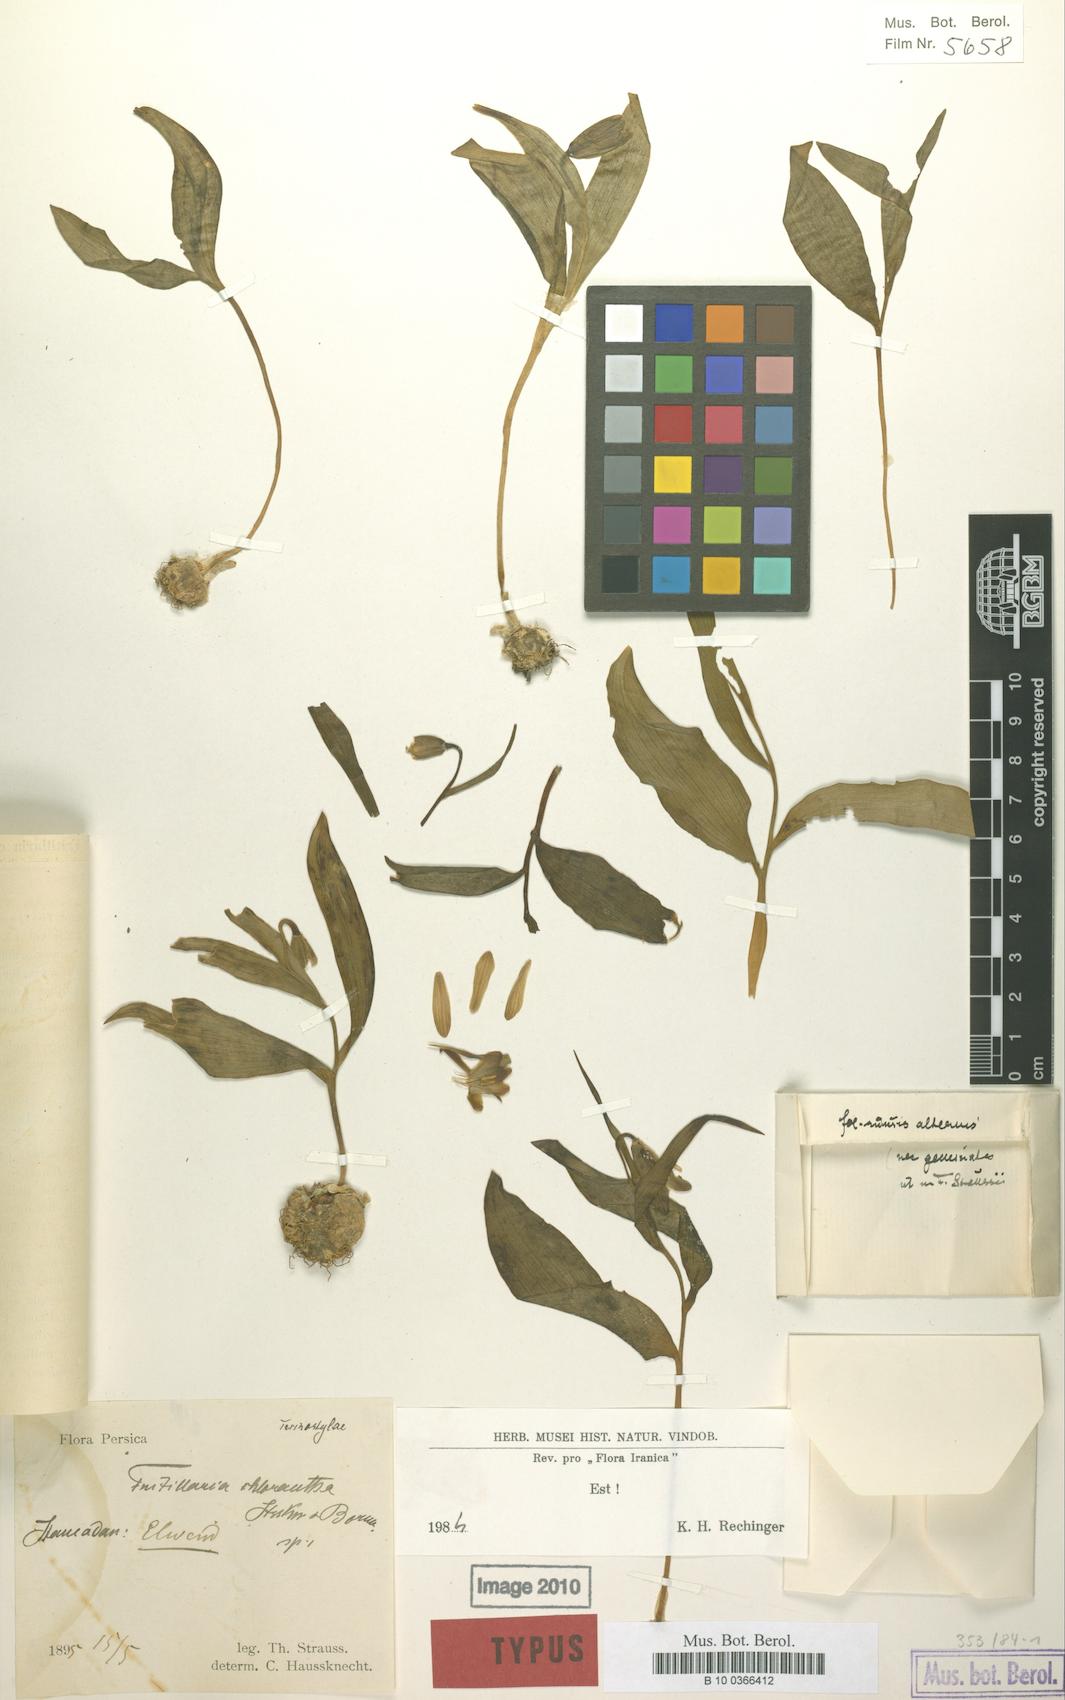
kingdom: Plantae
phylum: Tracheophyta
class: Liliopsida
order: Liliales
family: Liliaceae
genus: Fritillaria
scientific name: Fritillaria chlorantha
